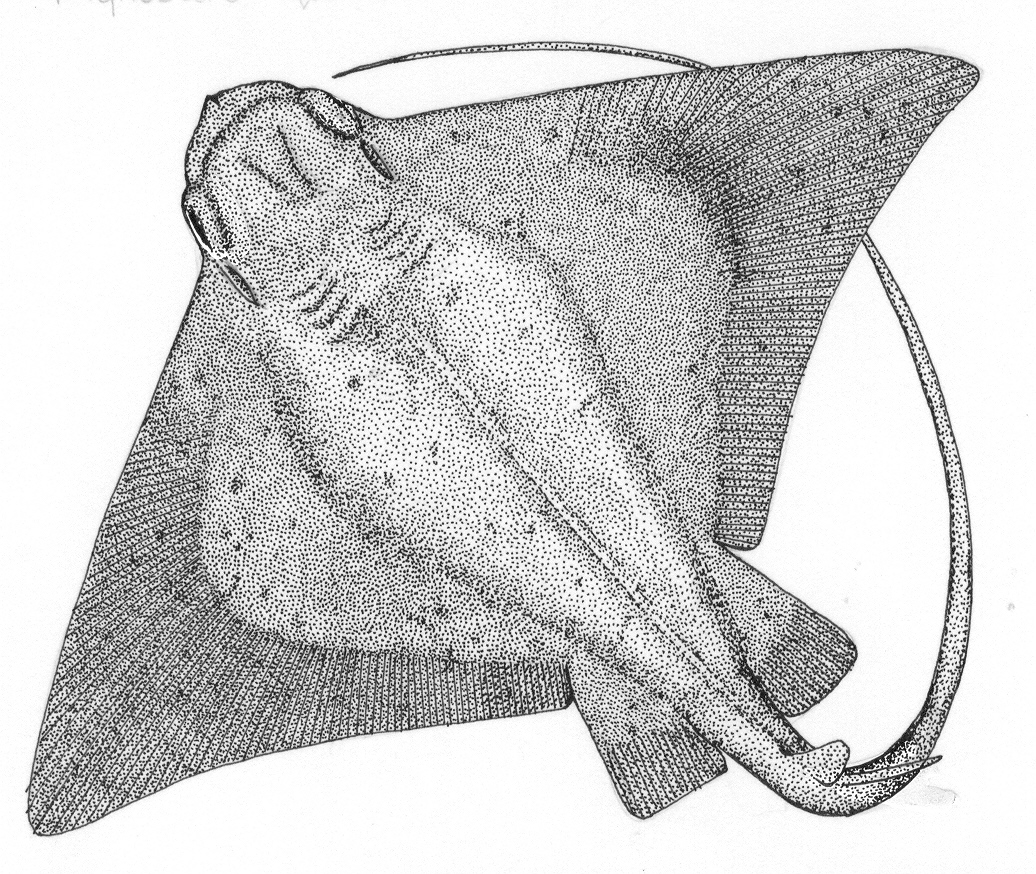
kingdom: Animalia
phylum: Chordata
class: Elasmobranchii
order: Myliobatiformes
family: Myliobatidae
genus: Myliobatis
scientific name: Myliobatis aquila
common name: Eagle ray
